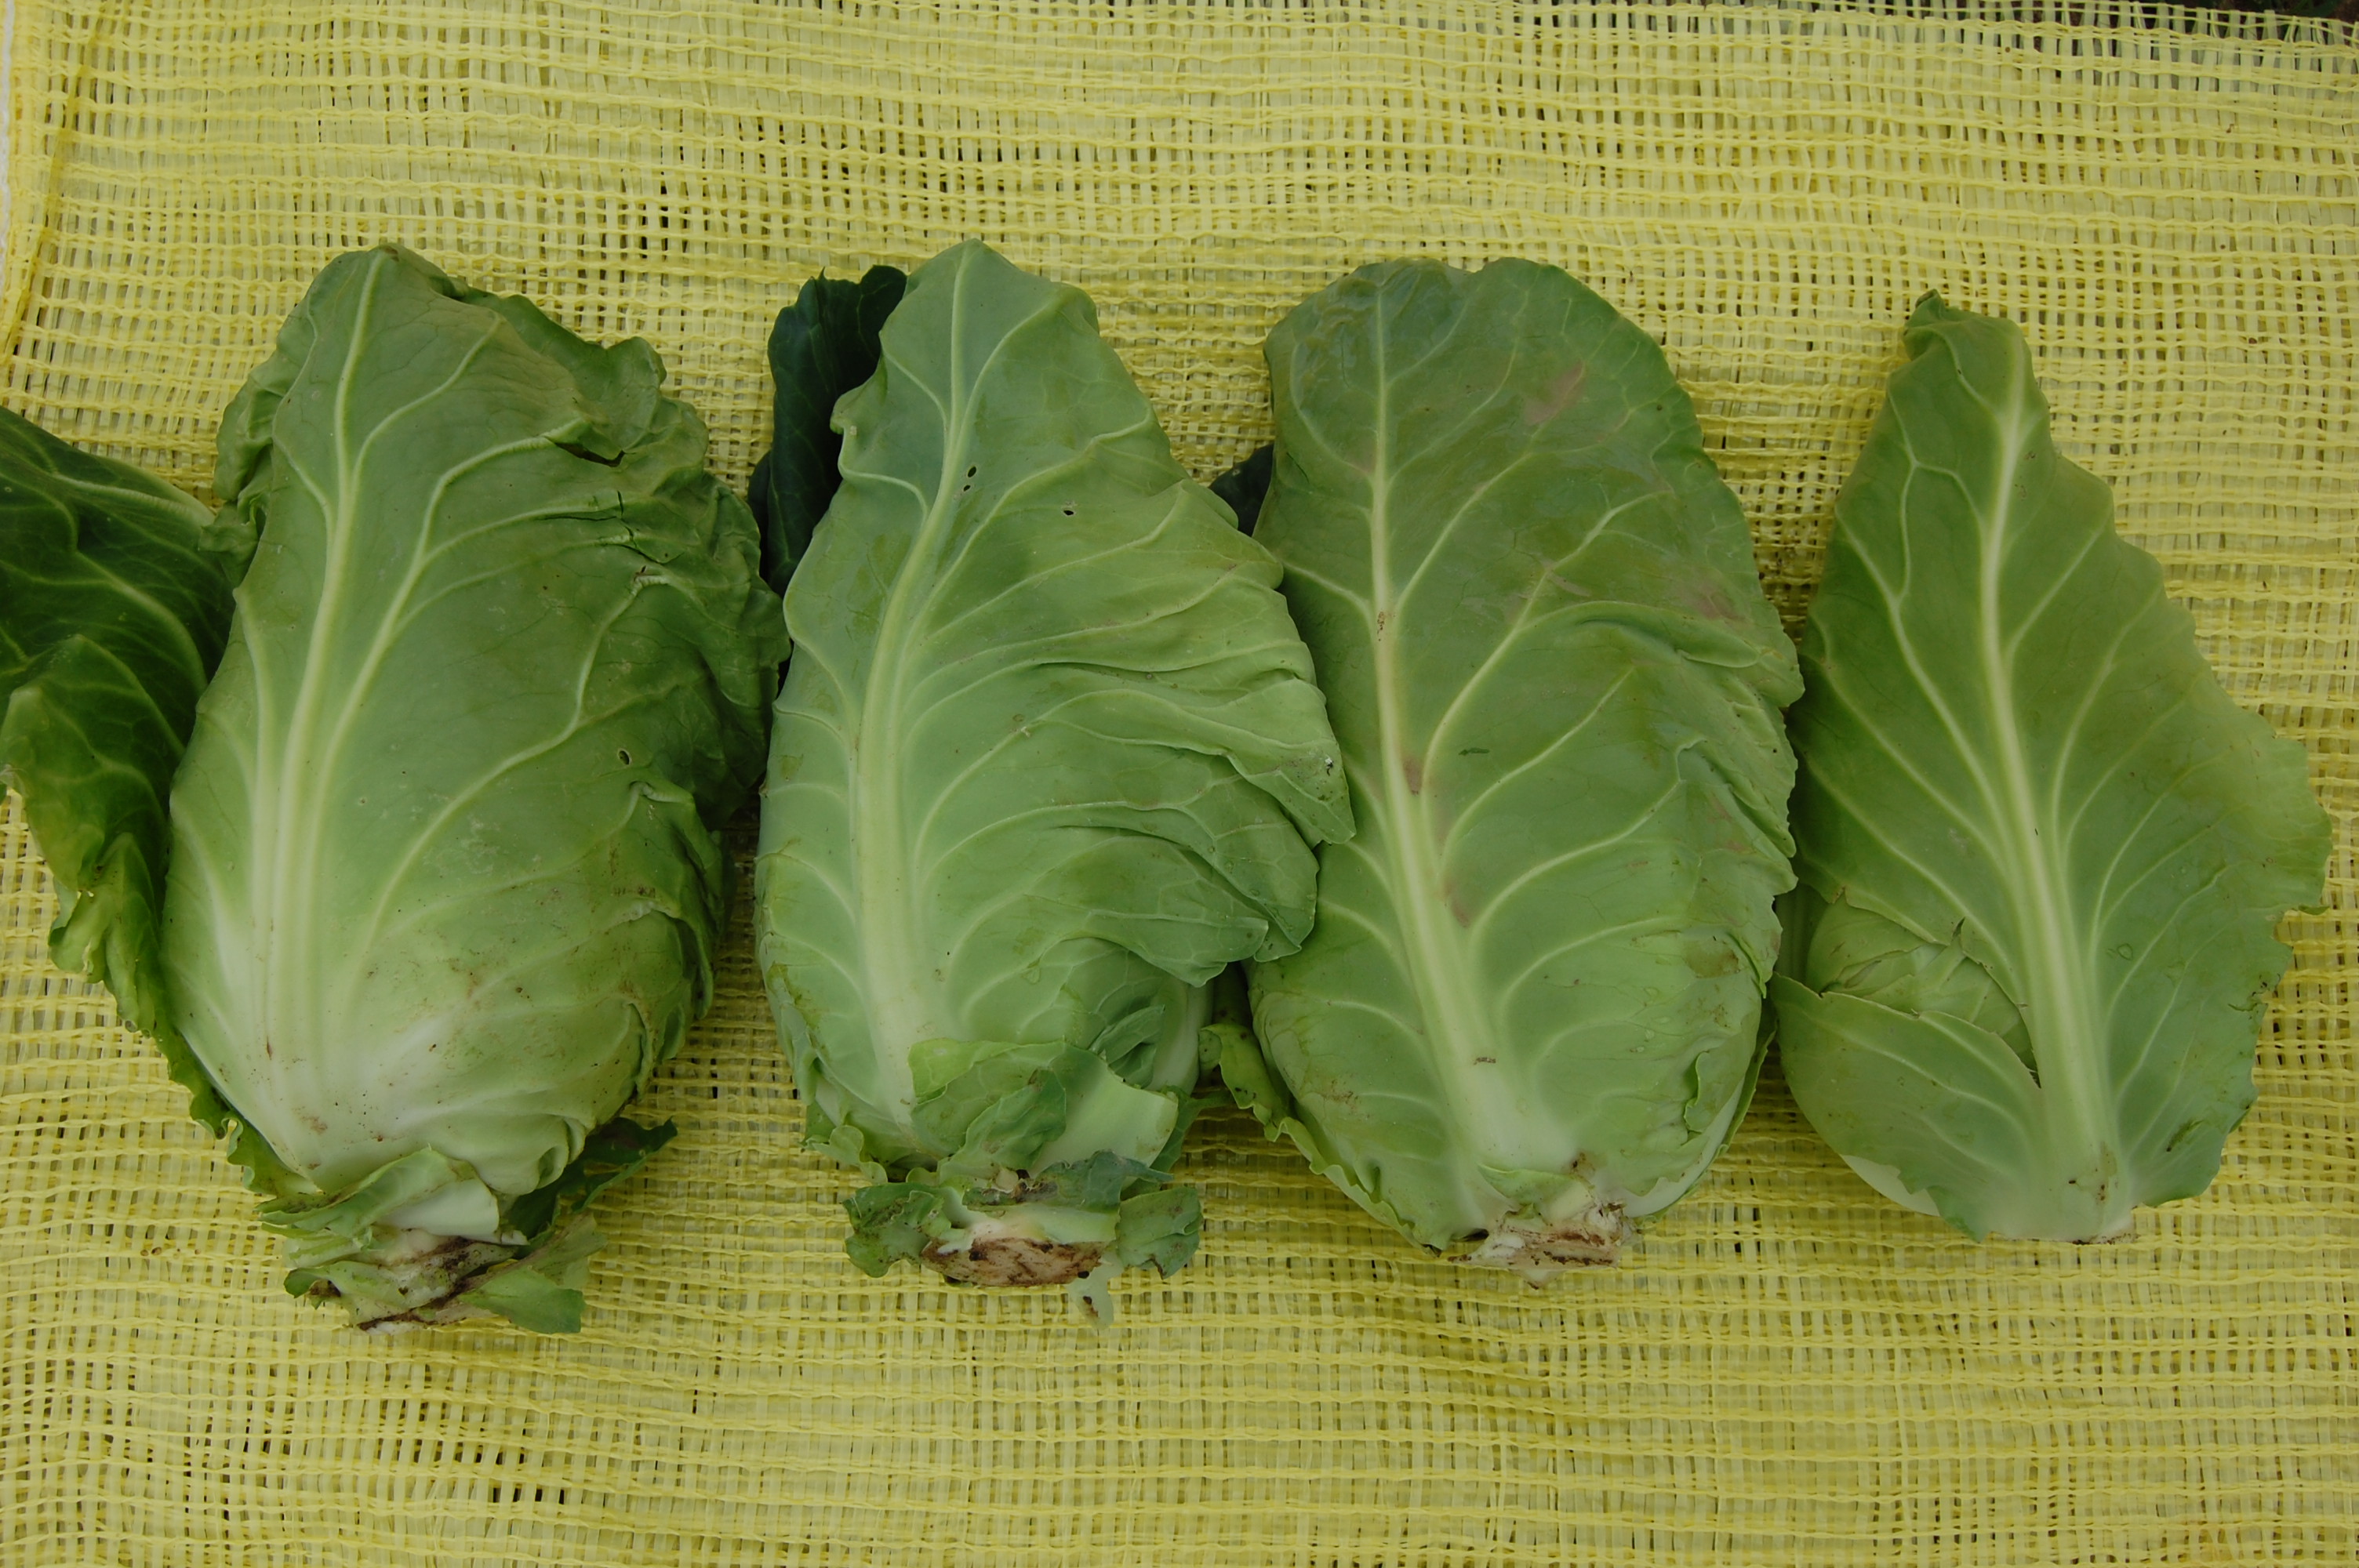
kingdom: Plantae
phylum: Tracheophyta
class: Magnoliopsida
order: Brassicales
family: Brassicaceae
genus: Brassica
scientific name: Brassica oleracea
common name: Cabbage
